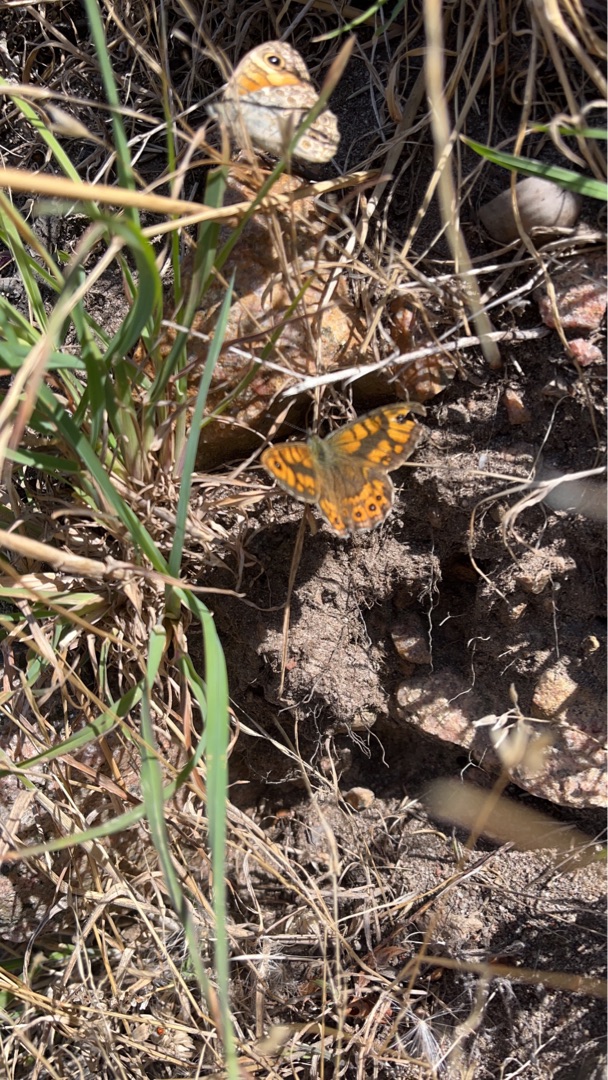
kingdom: Animalia
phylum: Arthropoda
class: Insecta
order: Lepidoptera
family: Nymphalidae
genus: Pararge
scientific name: Pararge Lasiommata megera
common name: Vejrandøje
